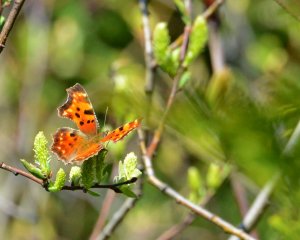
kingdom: Animalia
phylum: Arthropoda
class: Insecta
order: Lepidoptera
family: Nymphalidae
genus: Polygonia
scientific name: Polygonia faunus
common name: Green Comma
